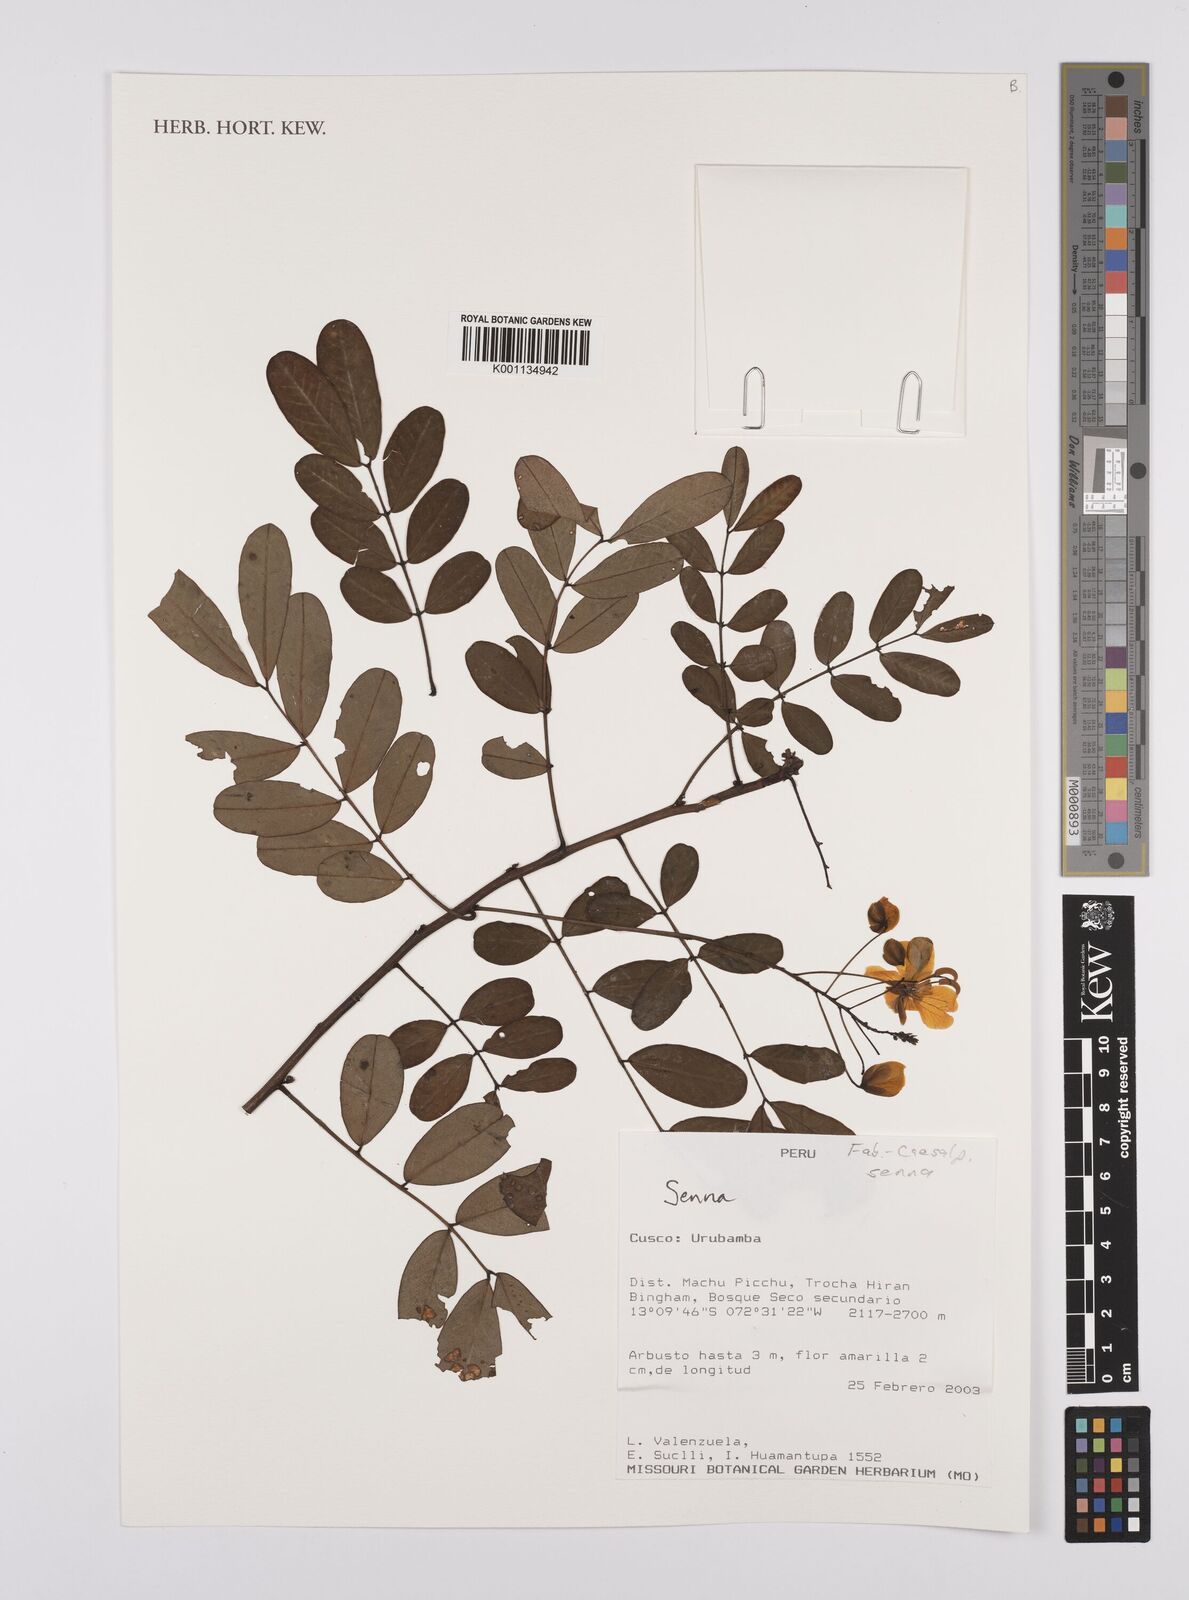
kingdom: Plantae
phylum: Tracheophyta
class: Magnoliopsida
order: Fabales
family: Fabaceae
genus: Senna
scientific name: Senna
